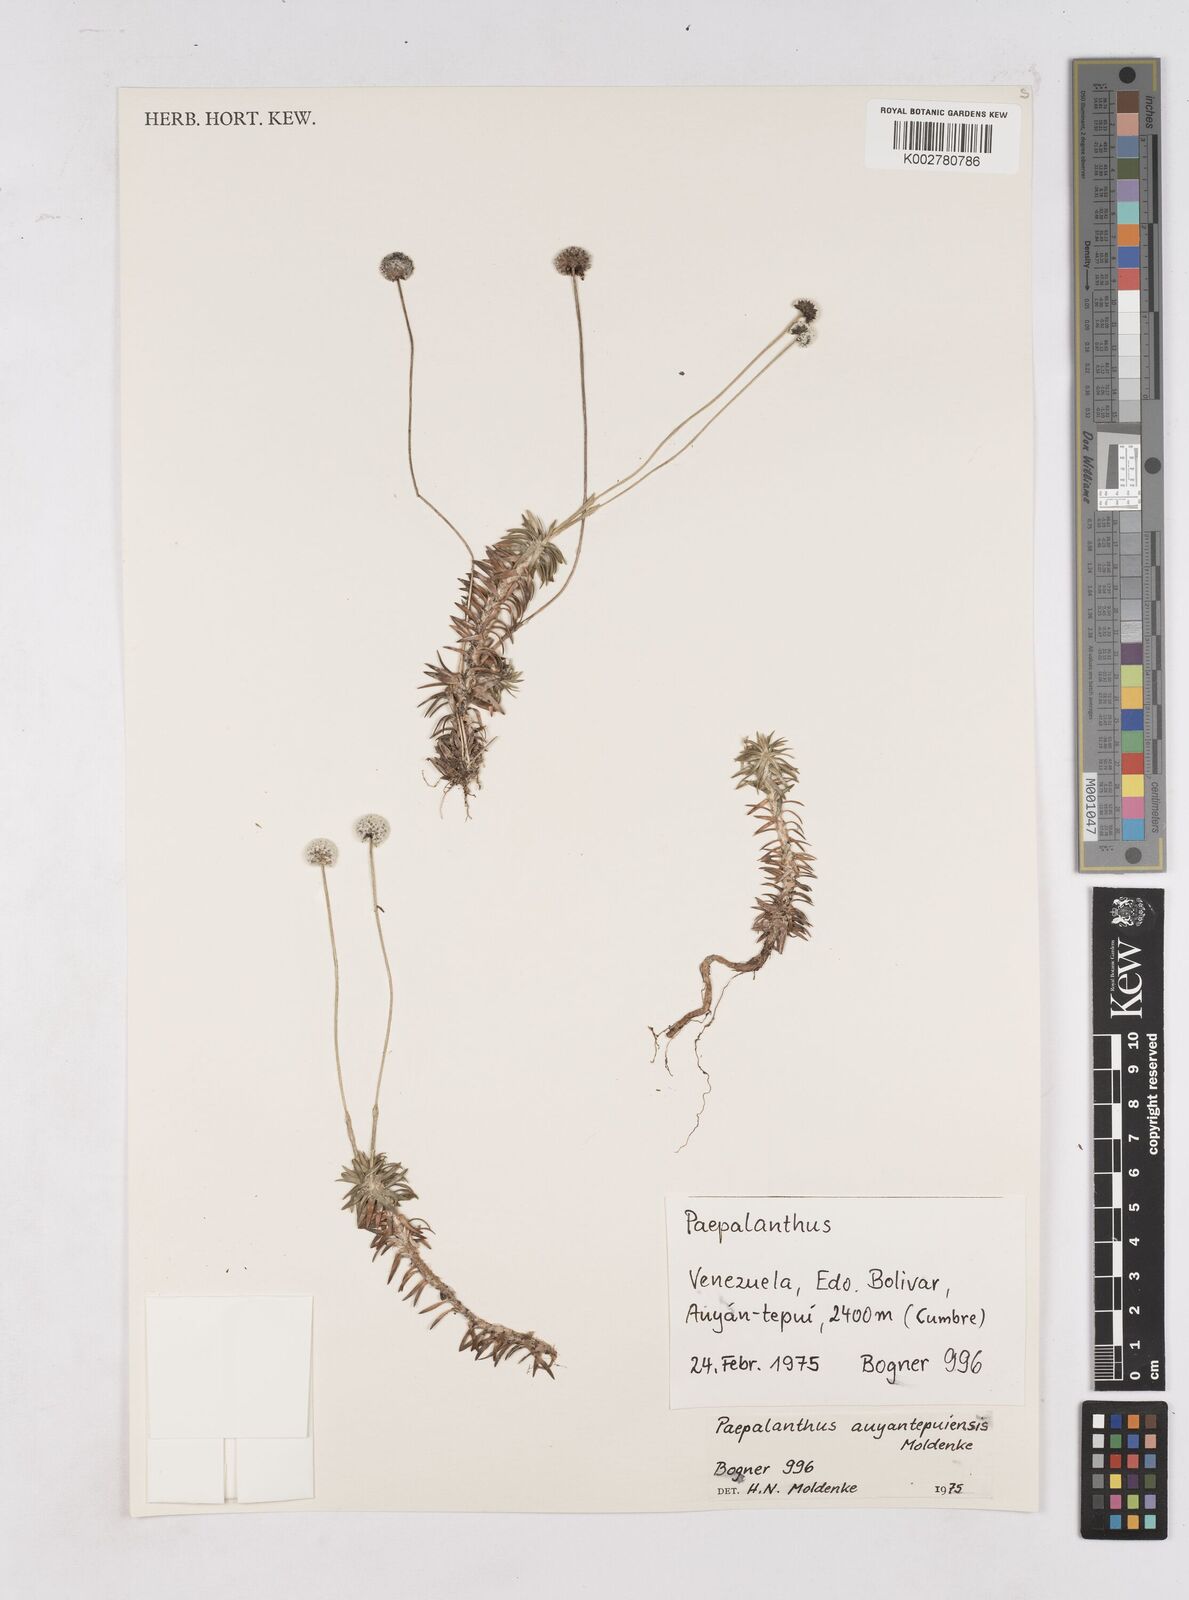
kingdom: Plantae
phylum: Tracheophyta
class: Liliopsida
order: Poales
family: Eriocaulaceae
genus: Paepalanthus
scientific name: Paepalanthus auyantepuiensis
